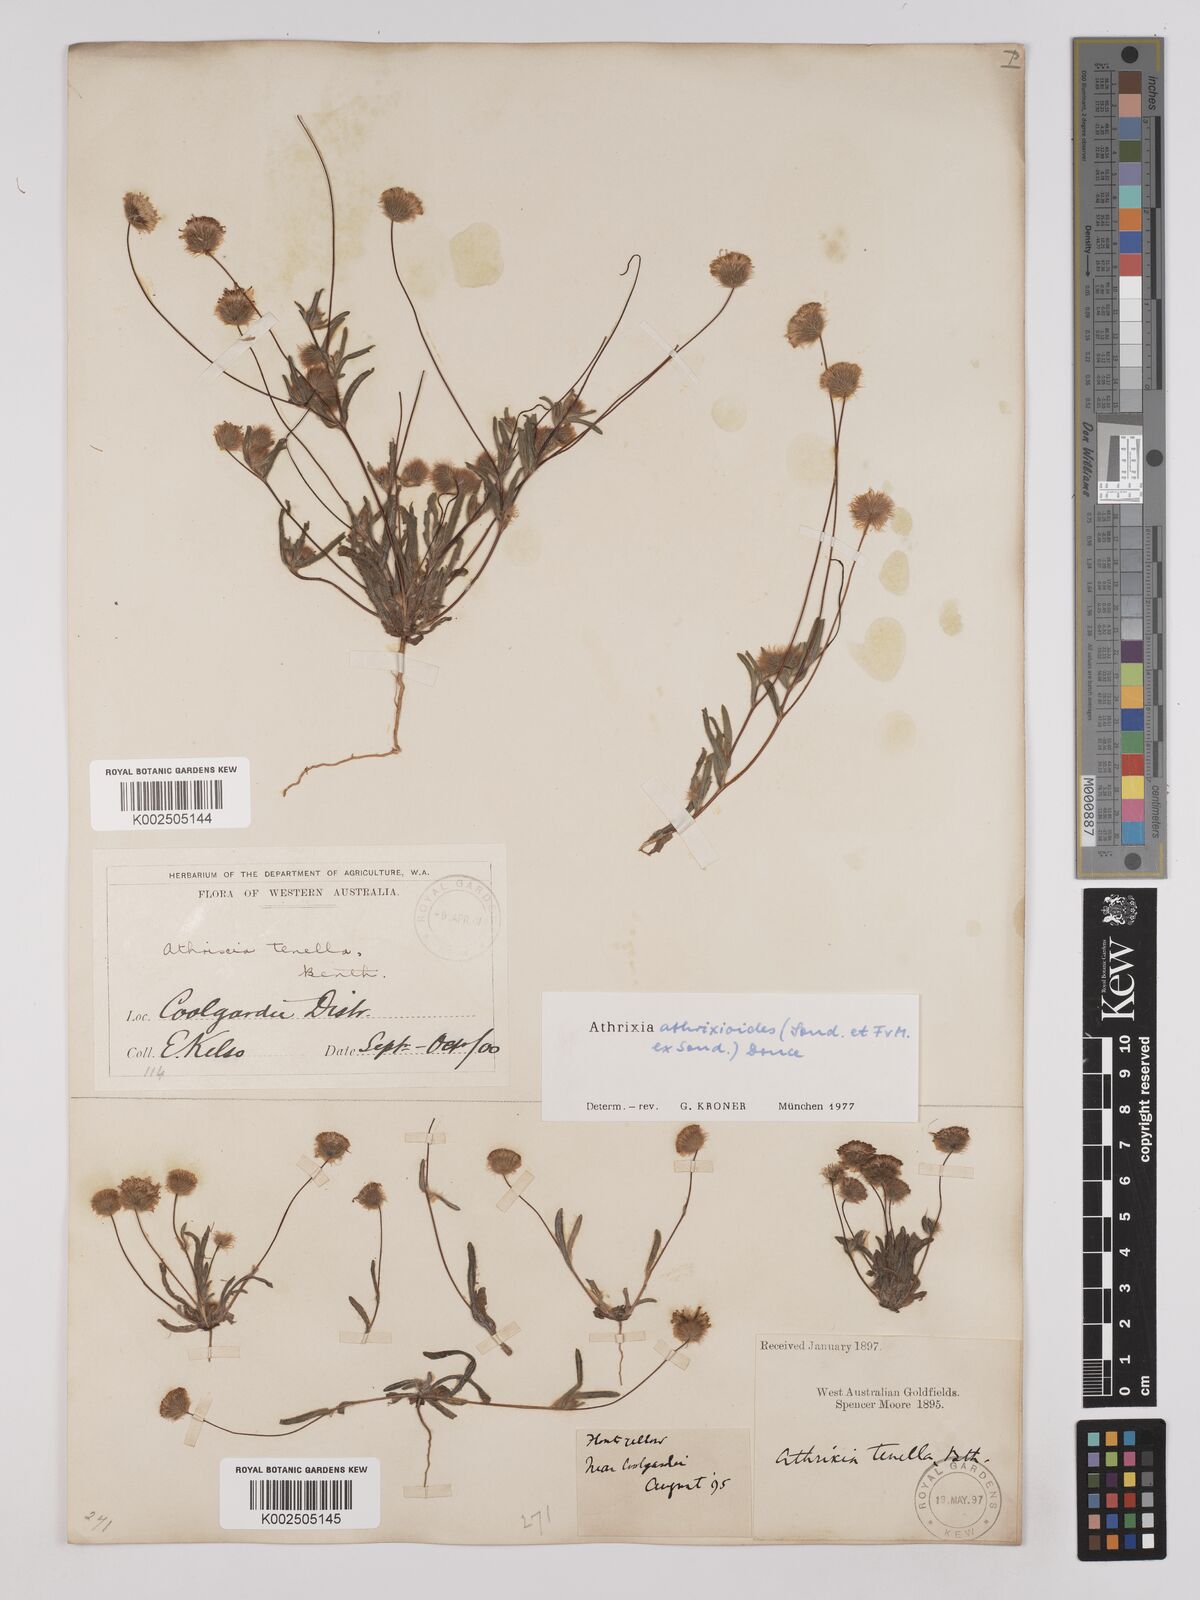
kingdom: Plantae
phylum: Tracheophyta
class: Magnoliopsida
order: Asterales
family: Asteraceae
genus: Asteridea
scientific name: Asteridea athrixioides
